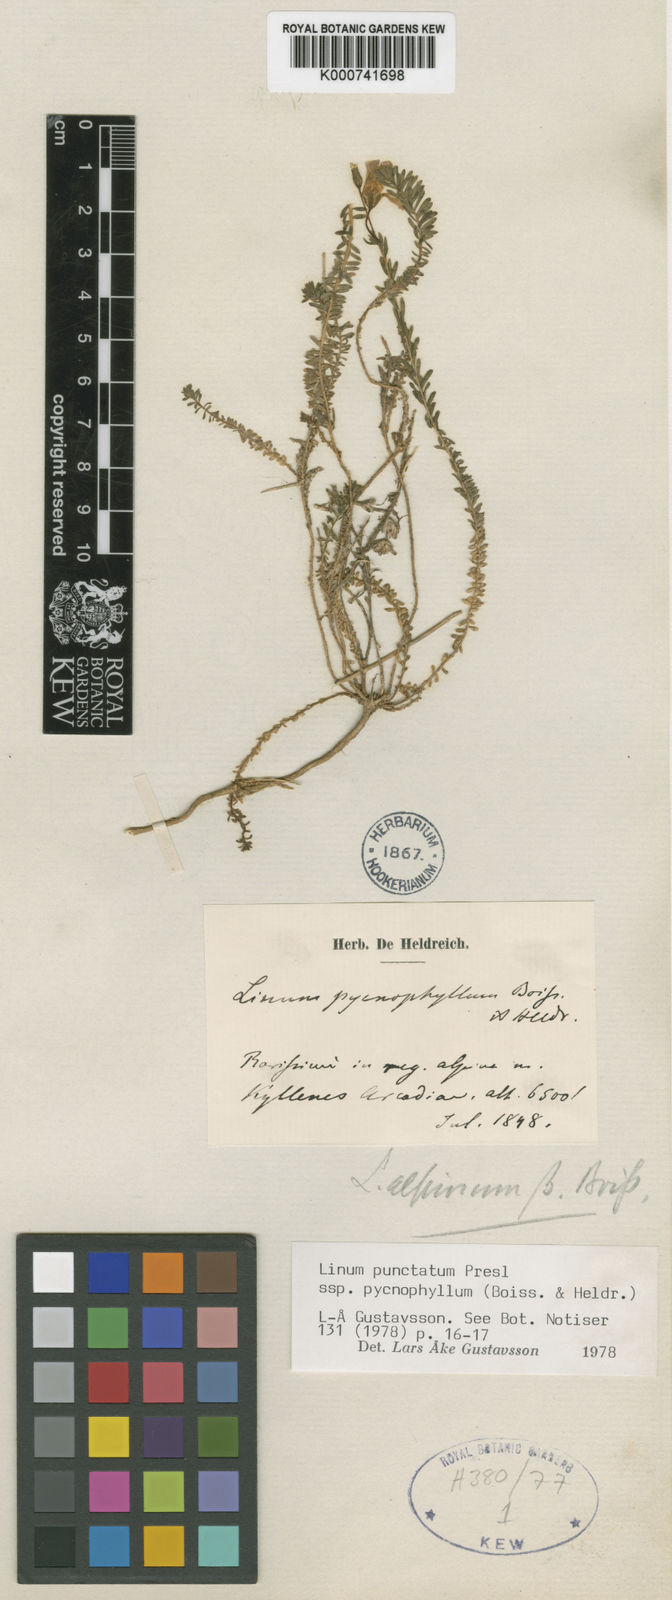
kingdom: Plantae
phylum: Tracheophyta
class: Magnoliopsida
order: Malpighiales
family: Linaceae
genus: Linum
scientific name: Linum punctatum
